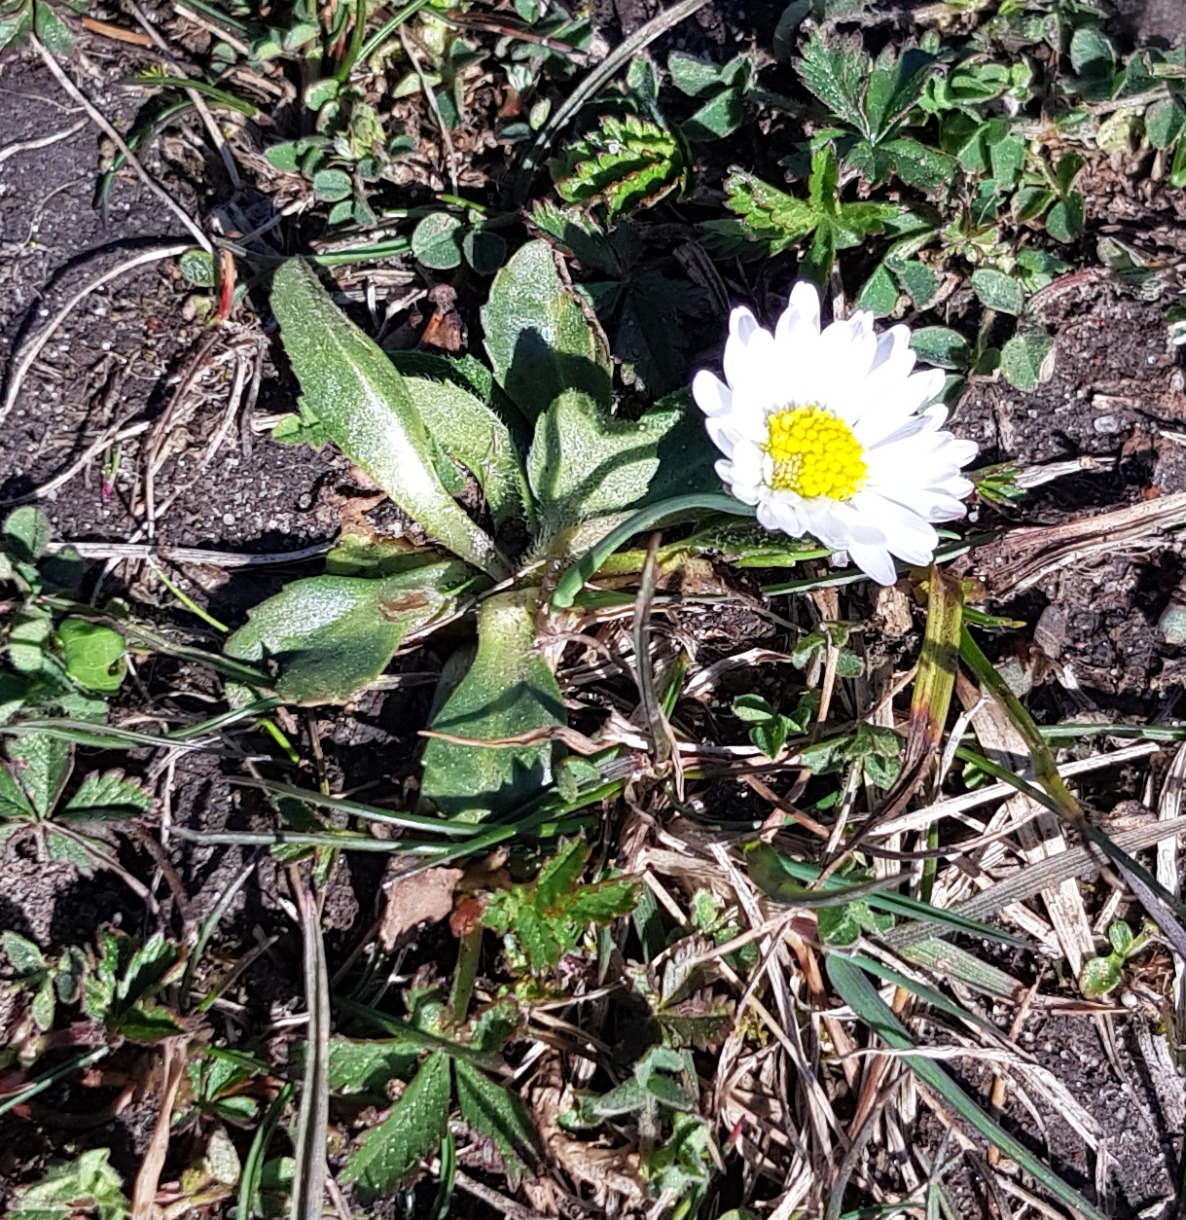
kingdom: Plantae
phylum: Tracheophyta
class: Magnoliopsida
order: Asterales
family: Asteraceae
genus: Bellis
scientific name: Bellis perennis
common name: Tusindfryd
